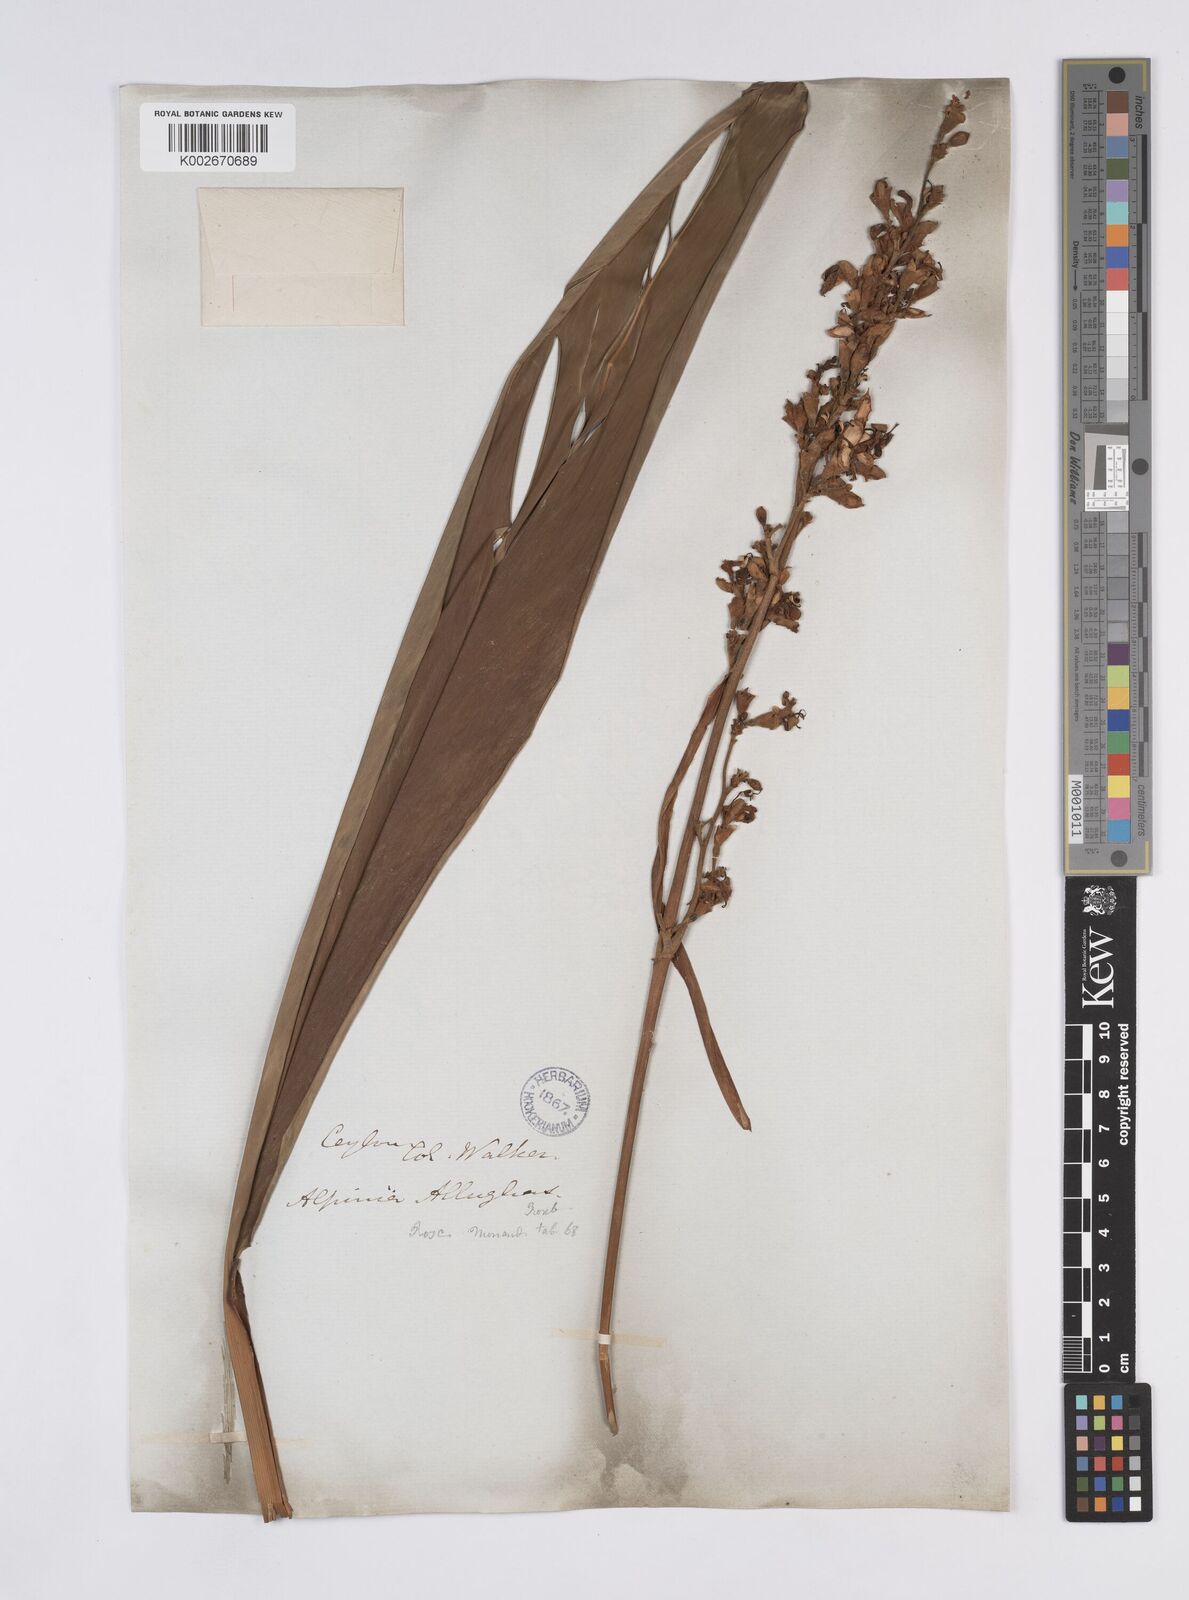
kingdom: Plantae
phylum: Tracheophyta
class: Liliopsida
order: Zingiberales
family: Zingiberaceae
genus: Alpinia
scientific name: Alpinia nigra
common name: Black fruited galanga
